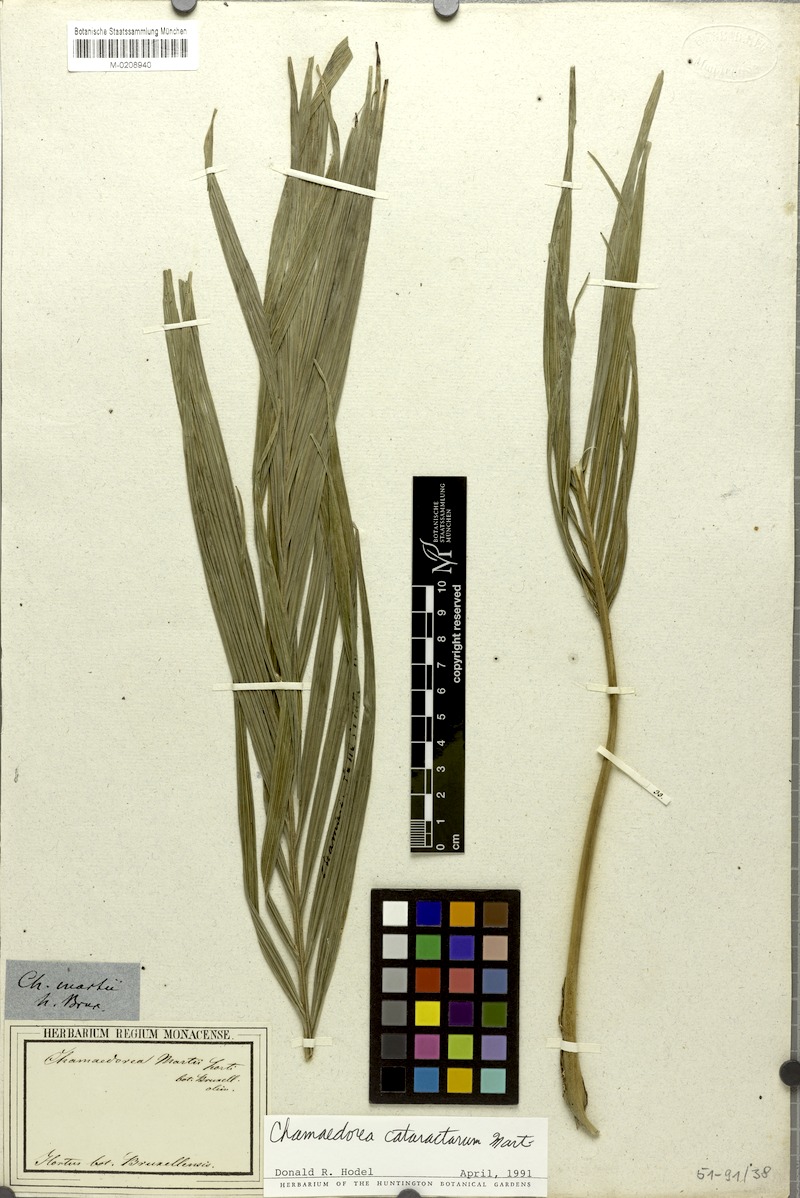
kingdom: Plantae
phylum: Tracheophyta
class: Liliopsida
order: Arecales
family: Arecaceae
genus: Chamaedorea
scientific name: Chamaedorea cataractarum
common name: Cascade palm
